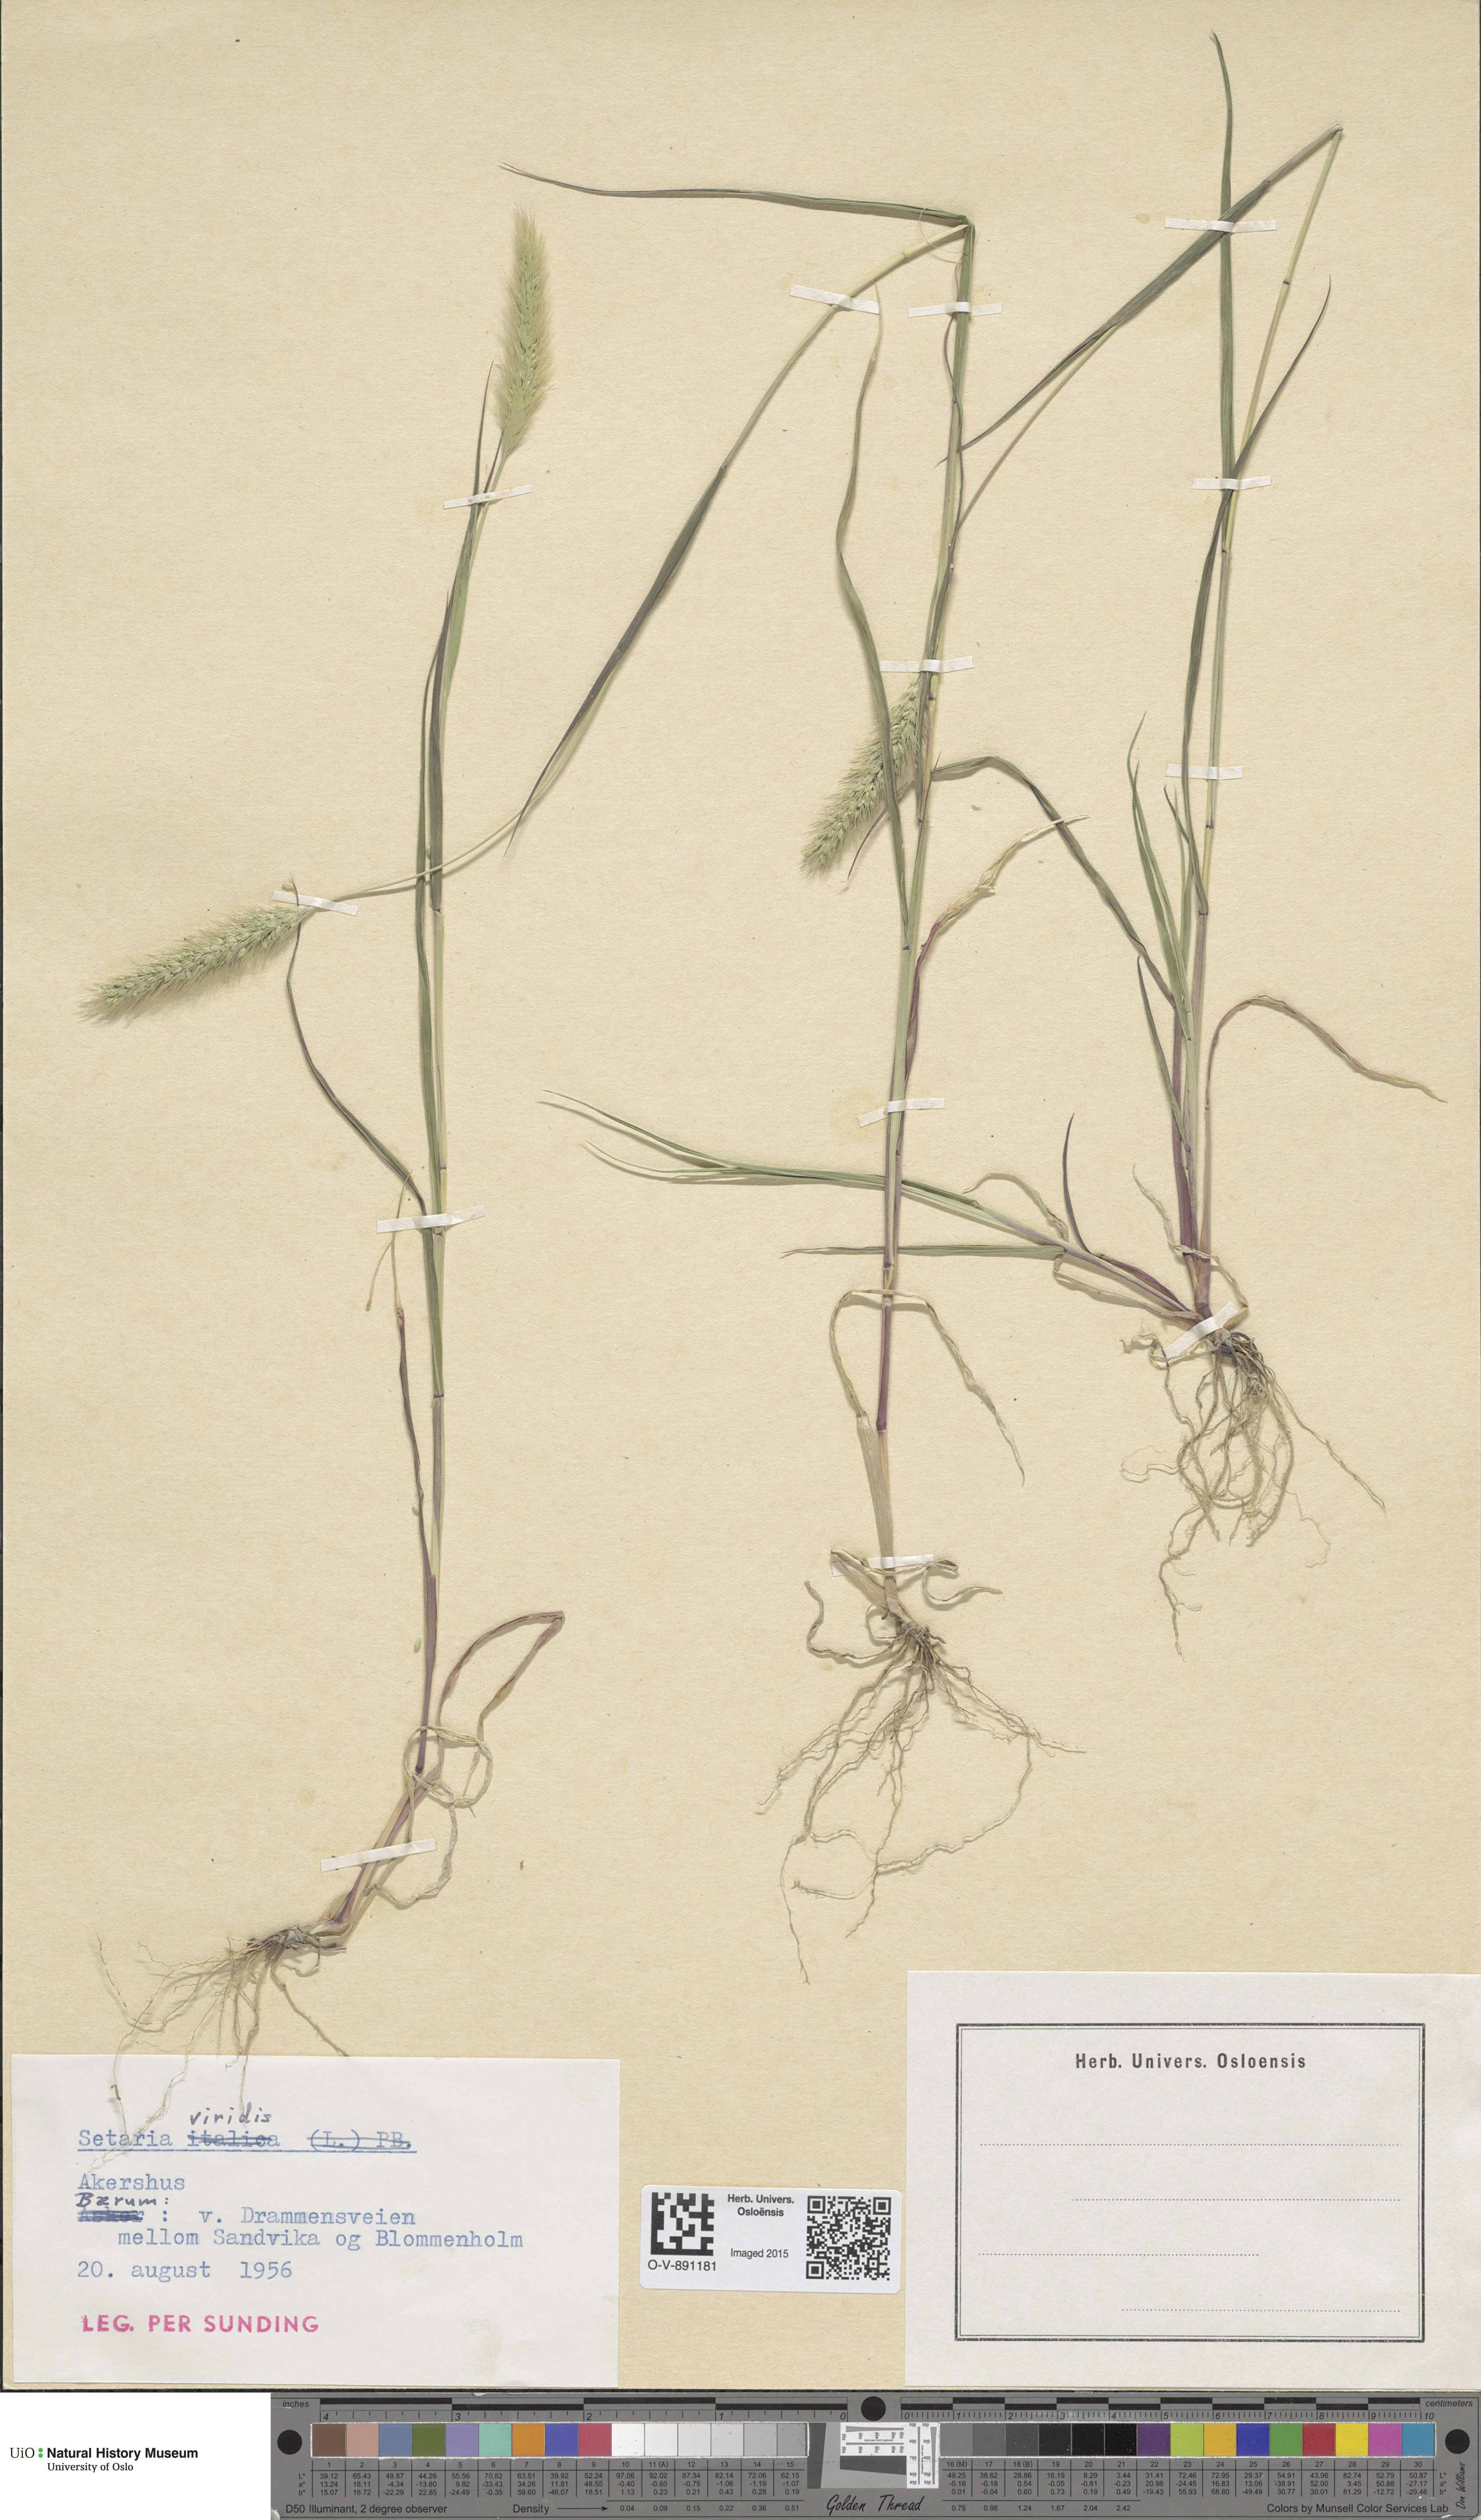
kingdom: Plantae
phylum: Tracheophyta
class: Liliopsida
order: Poales
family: Poaceae
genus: Setaria
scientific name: Setaria viridis
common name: Green bristlegrass
